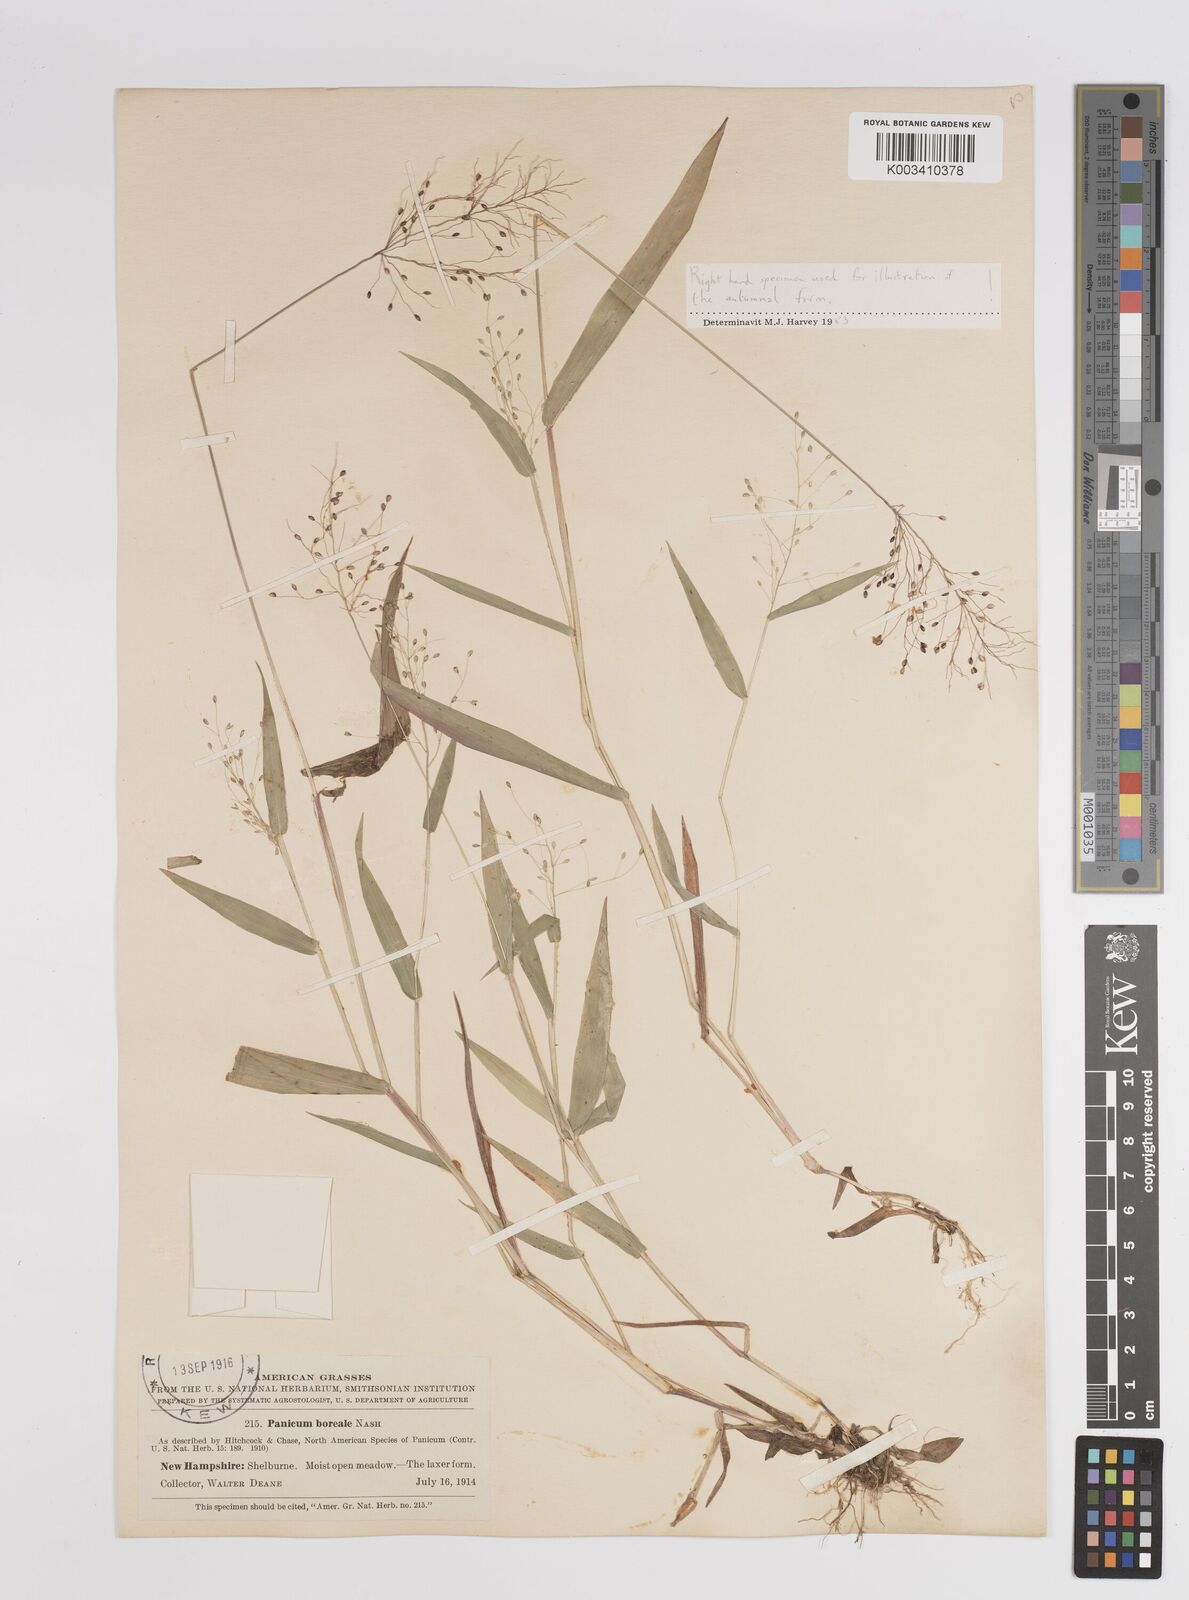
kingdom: Plantae
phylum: Tracheophyta
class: Liliopsida
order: Poales
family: Poaceae
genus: Dichanthelium
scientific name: Dichanthelium boreale
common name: Northern panicgrass
